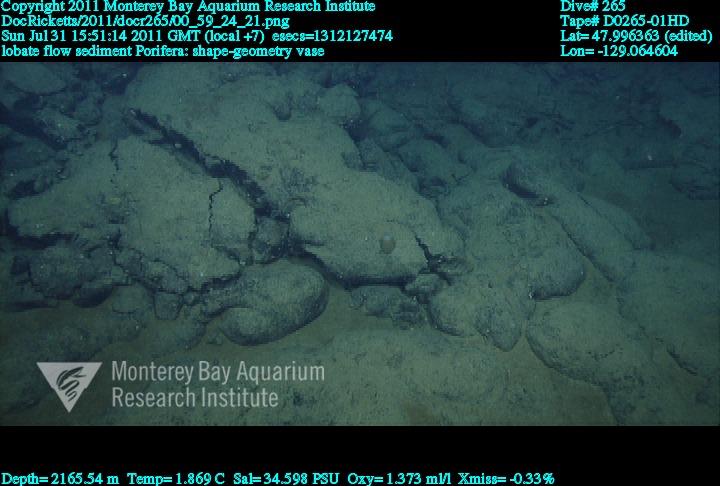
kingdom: Animalia
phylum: Porifera
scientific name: Porifera
